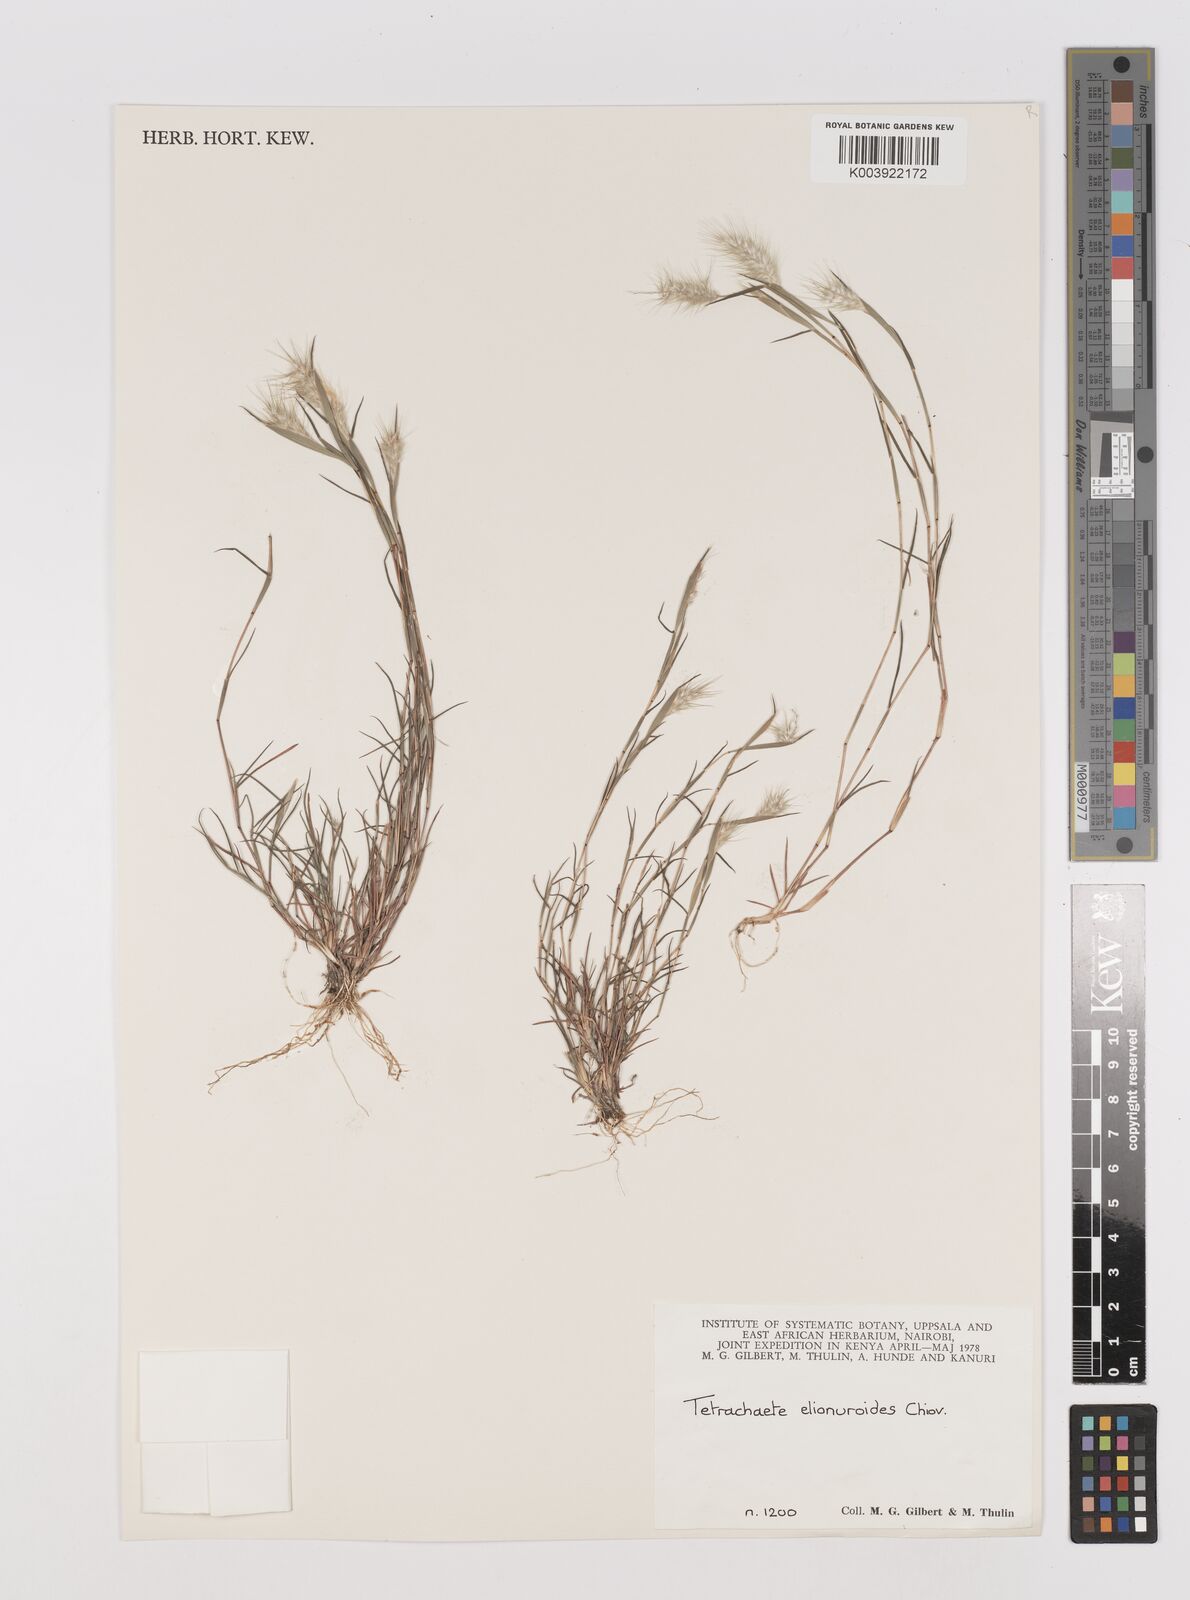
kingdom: Plantae
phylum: Tracheophyta
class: Liliopsida
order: Poales
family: Poaceae
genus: Tetrachaete
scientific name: Tetrachaete elionuroides
